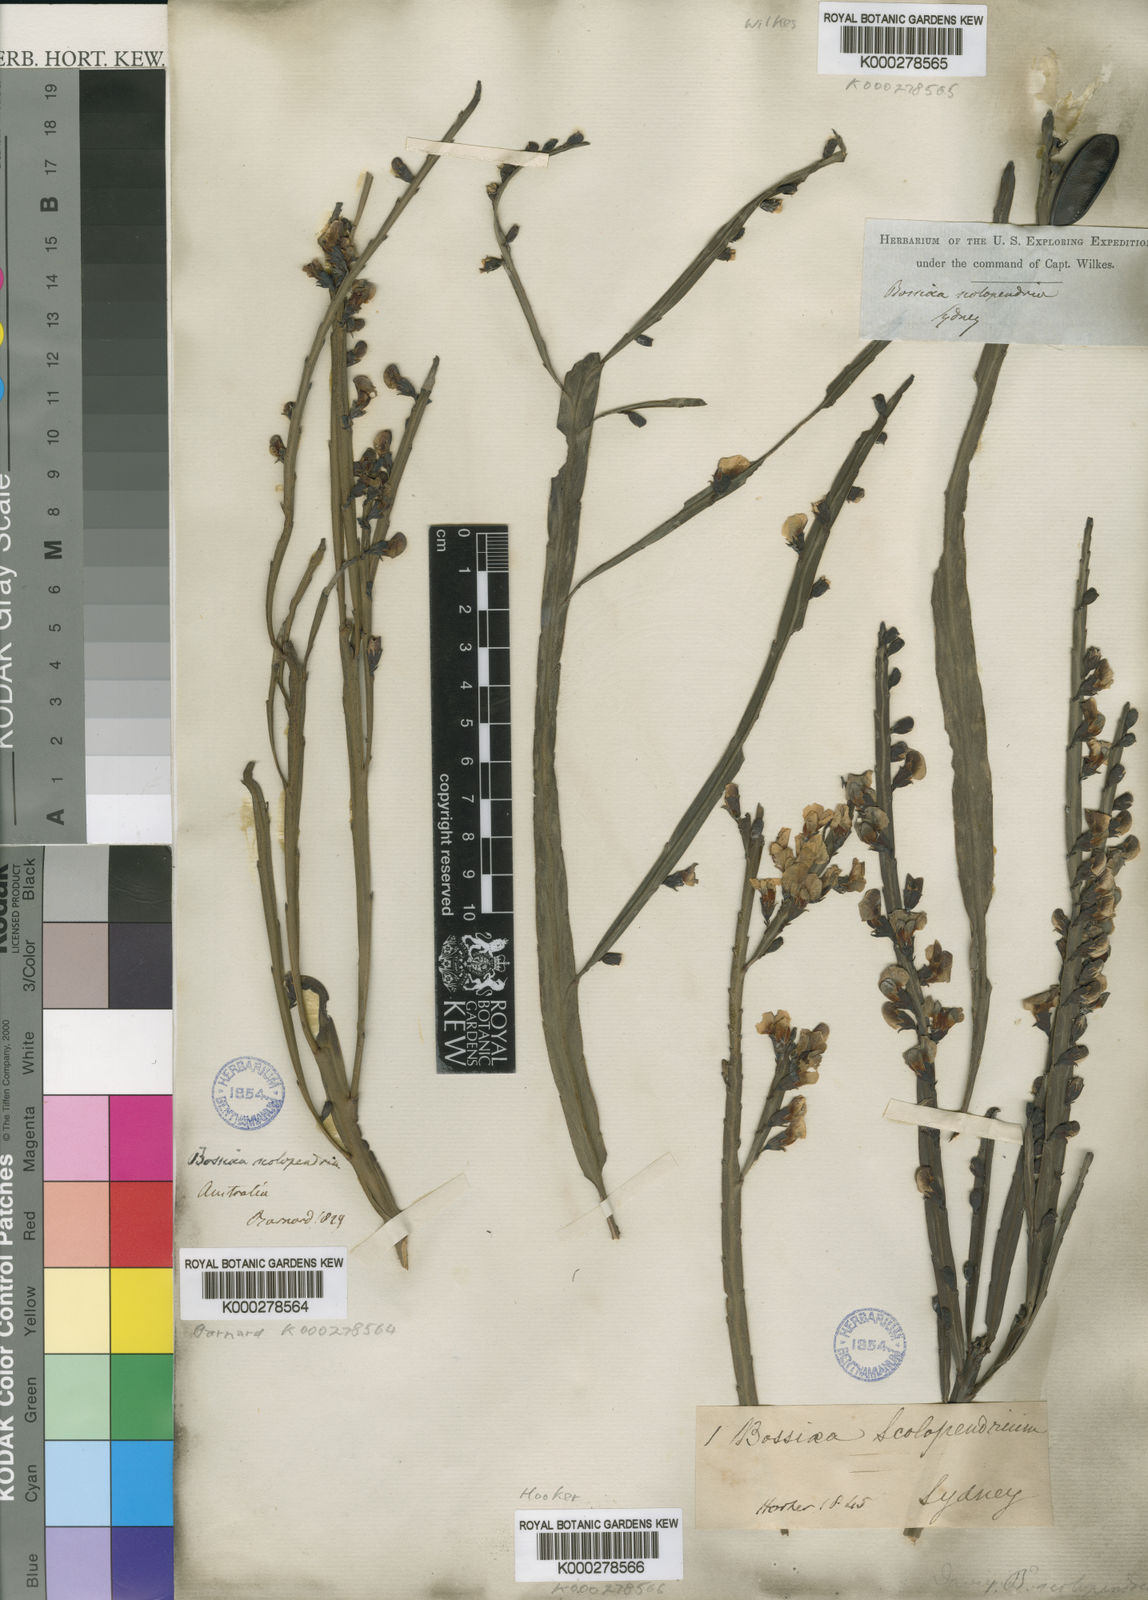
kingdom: Plantae
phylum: Tracheophyta
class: Magnoliopsida
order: Fabales
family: Fabaceae
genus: Bossiaea
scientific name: Bossiaea scolopendria
